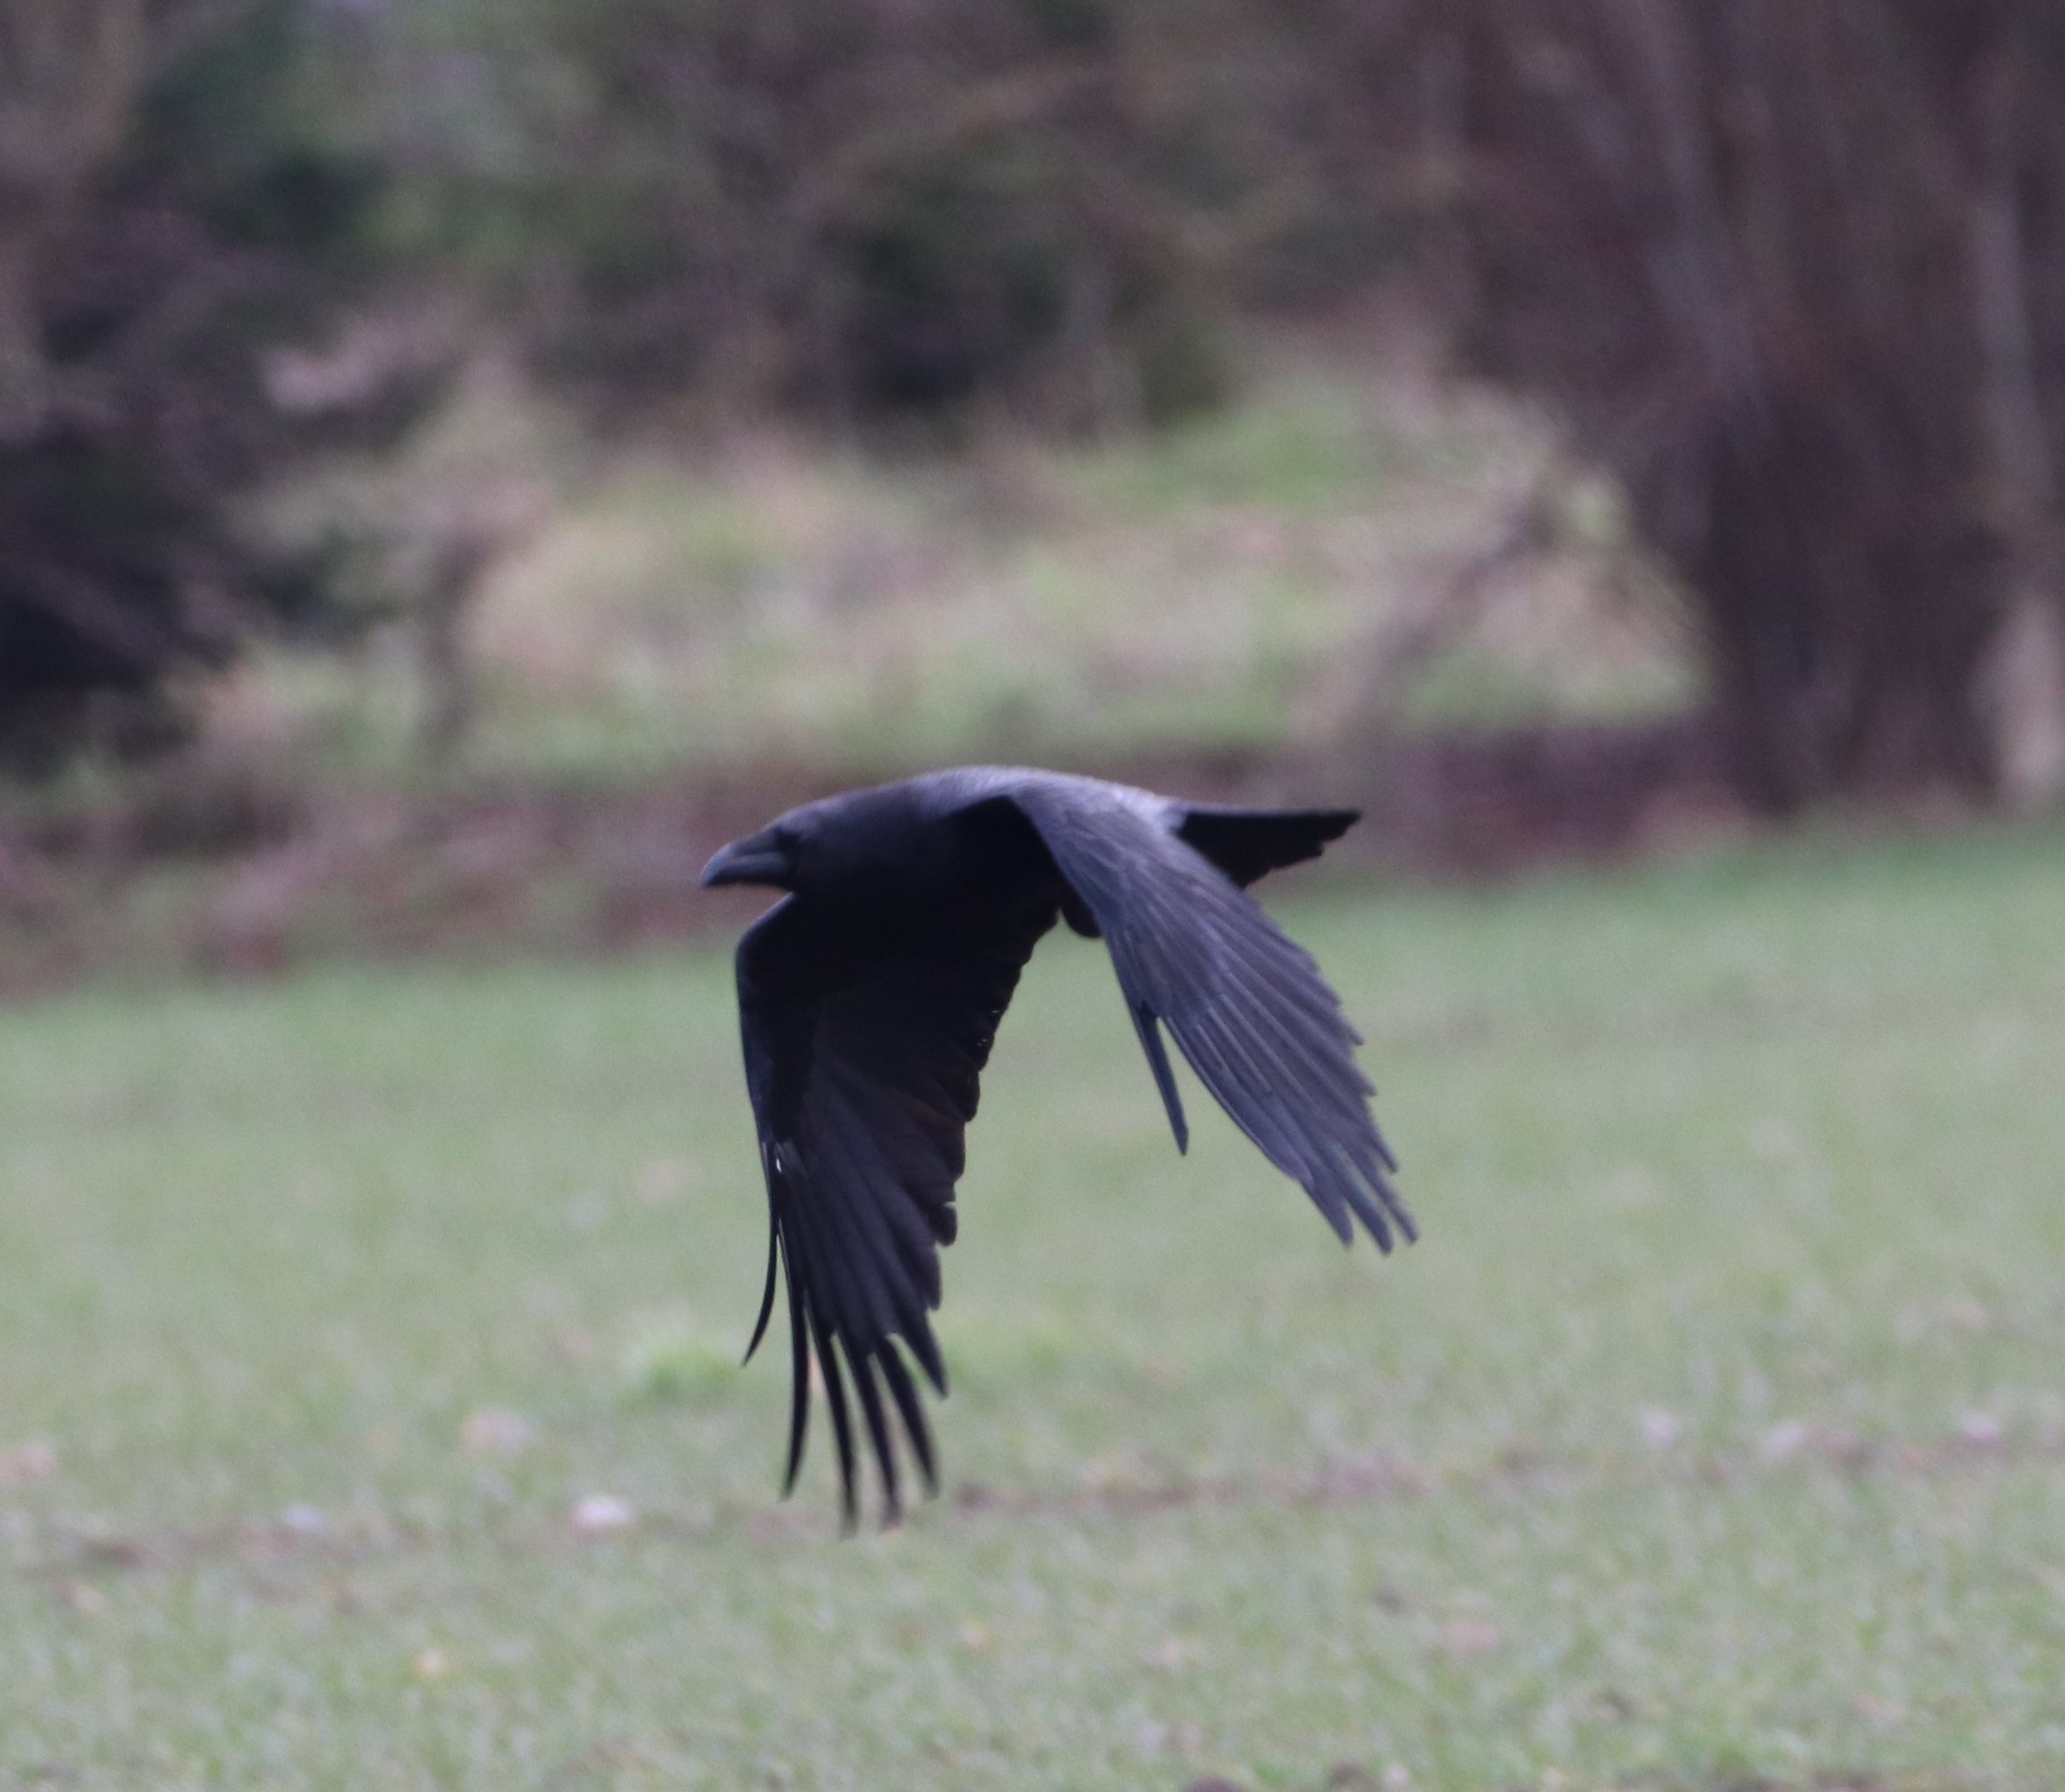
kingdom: Animalia
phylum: Chordata
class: Aves
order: Passeriformes
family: Corvidae
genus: Corvus
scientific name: Corvus corax
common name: Ravn
